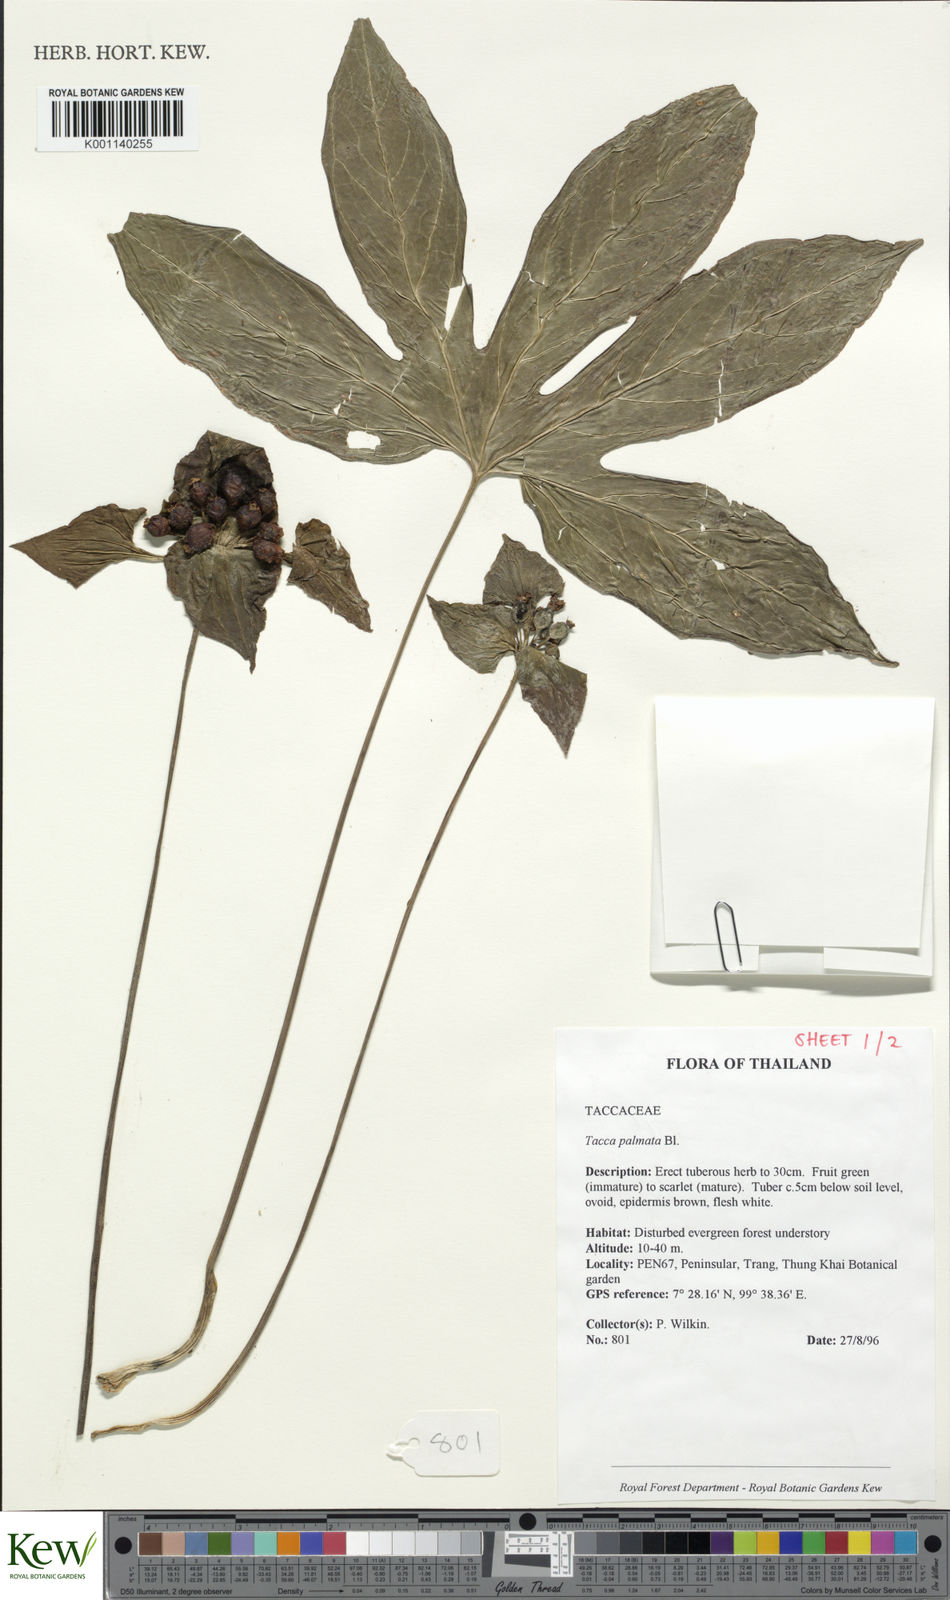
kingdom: Plantae
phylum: Tracheophyta
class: Liliopsida
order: Dioscoreales
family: Dioscoreaceae
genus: Tacca
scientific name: Tacca palmata
